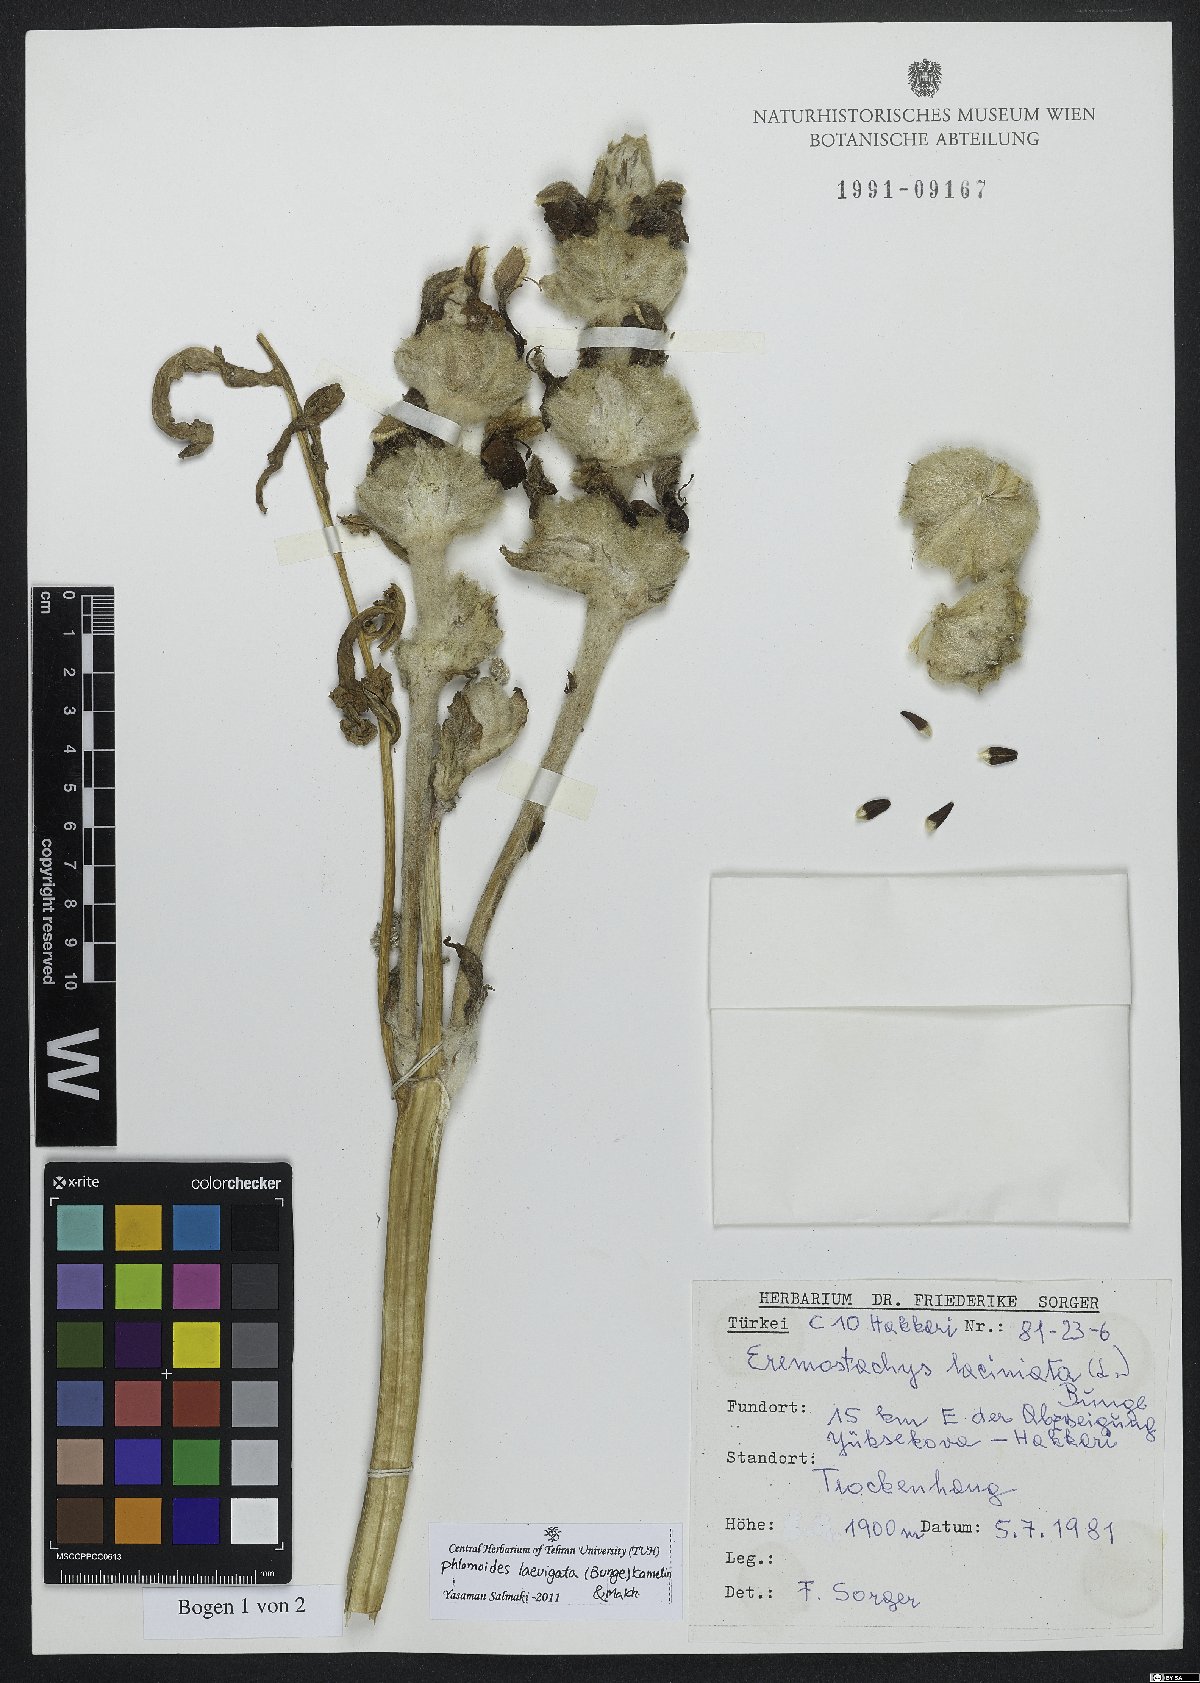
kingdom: Plantae
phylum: Tracheophyta
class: Magnoliopsida
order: Lamiales
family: Lamiaceae
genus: Phlomoides
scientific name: Phlomoides laevigata
